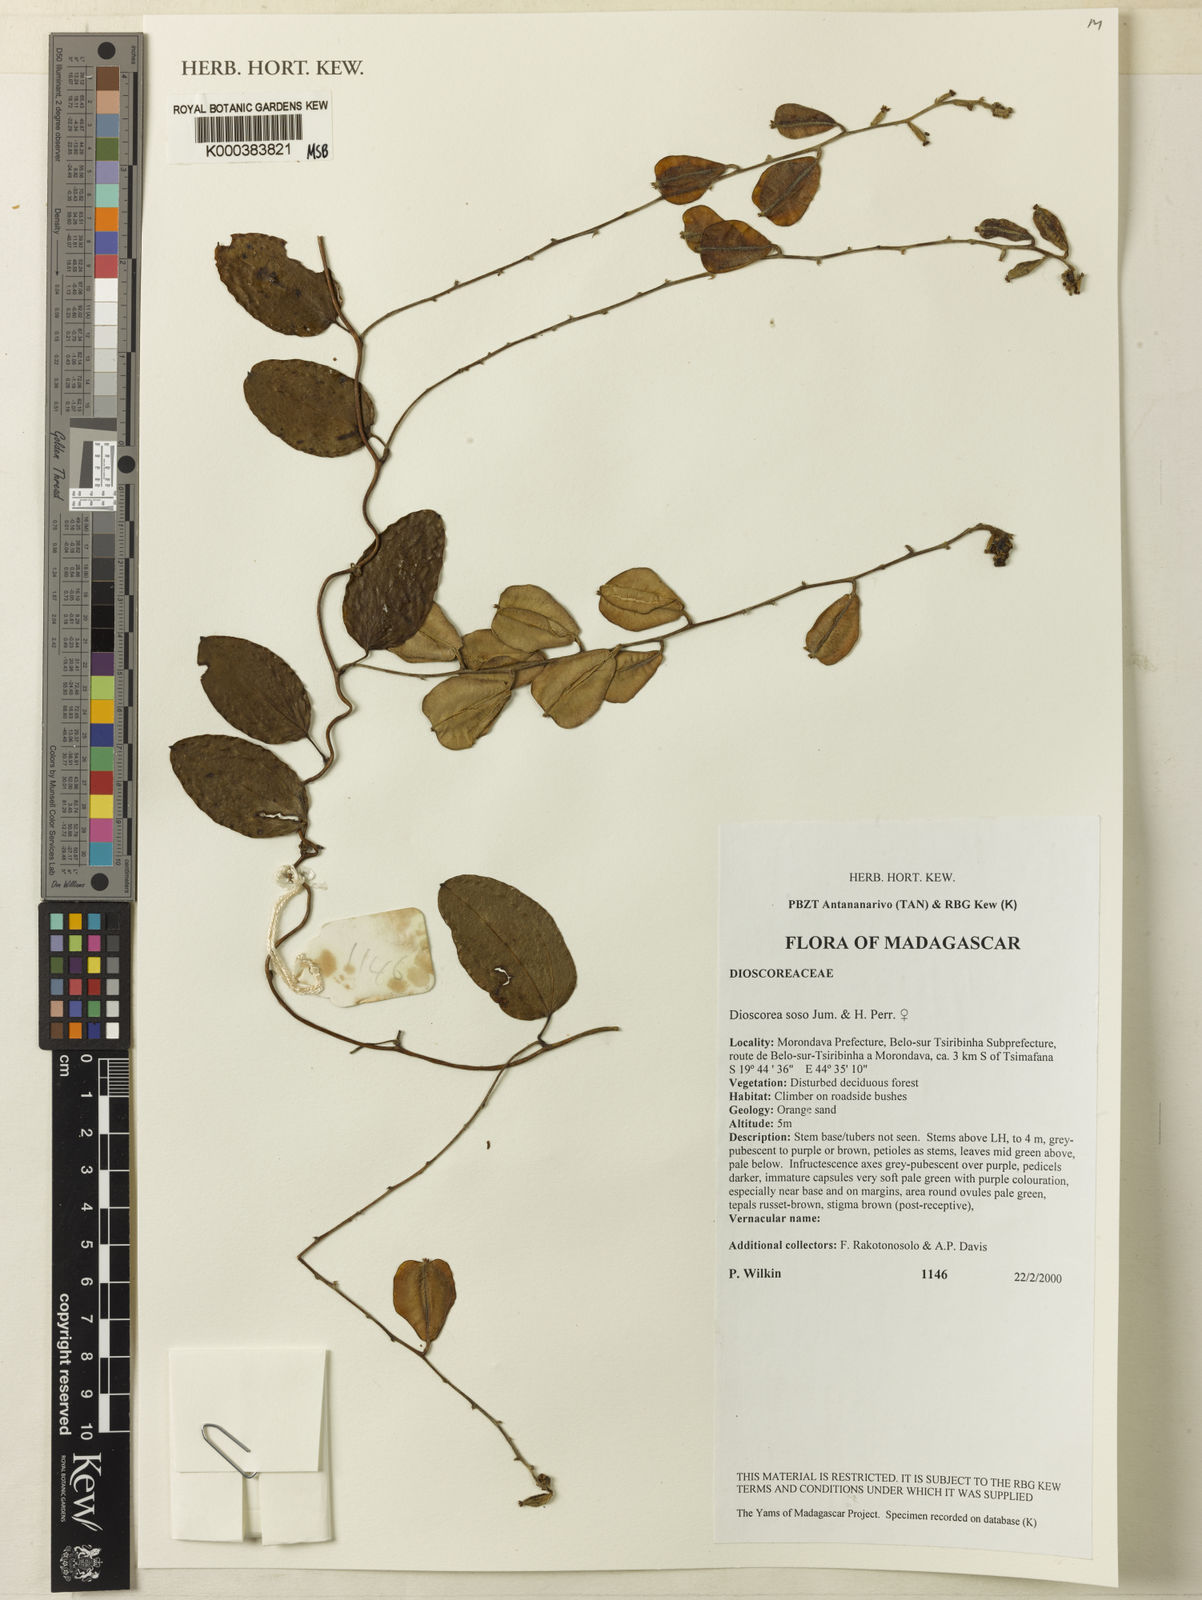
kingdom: Plantae
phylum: Tracheophyta
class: Liliopsida
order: Dioscoreales
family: Dioscoreaceae
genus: Dioscorea
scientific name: Dioscorea
